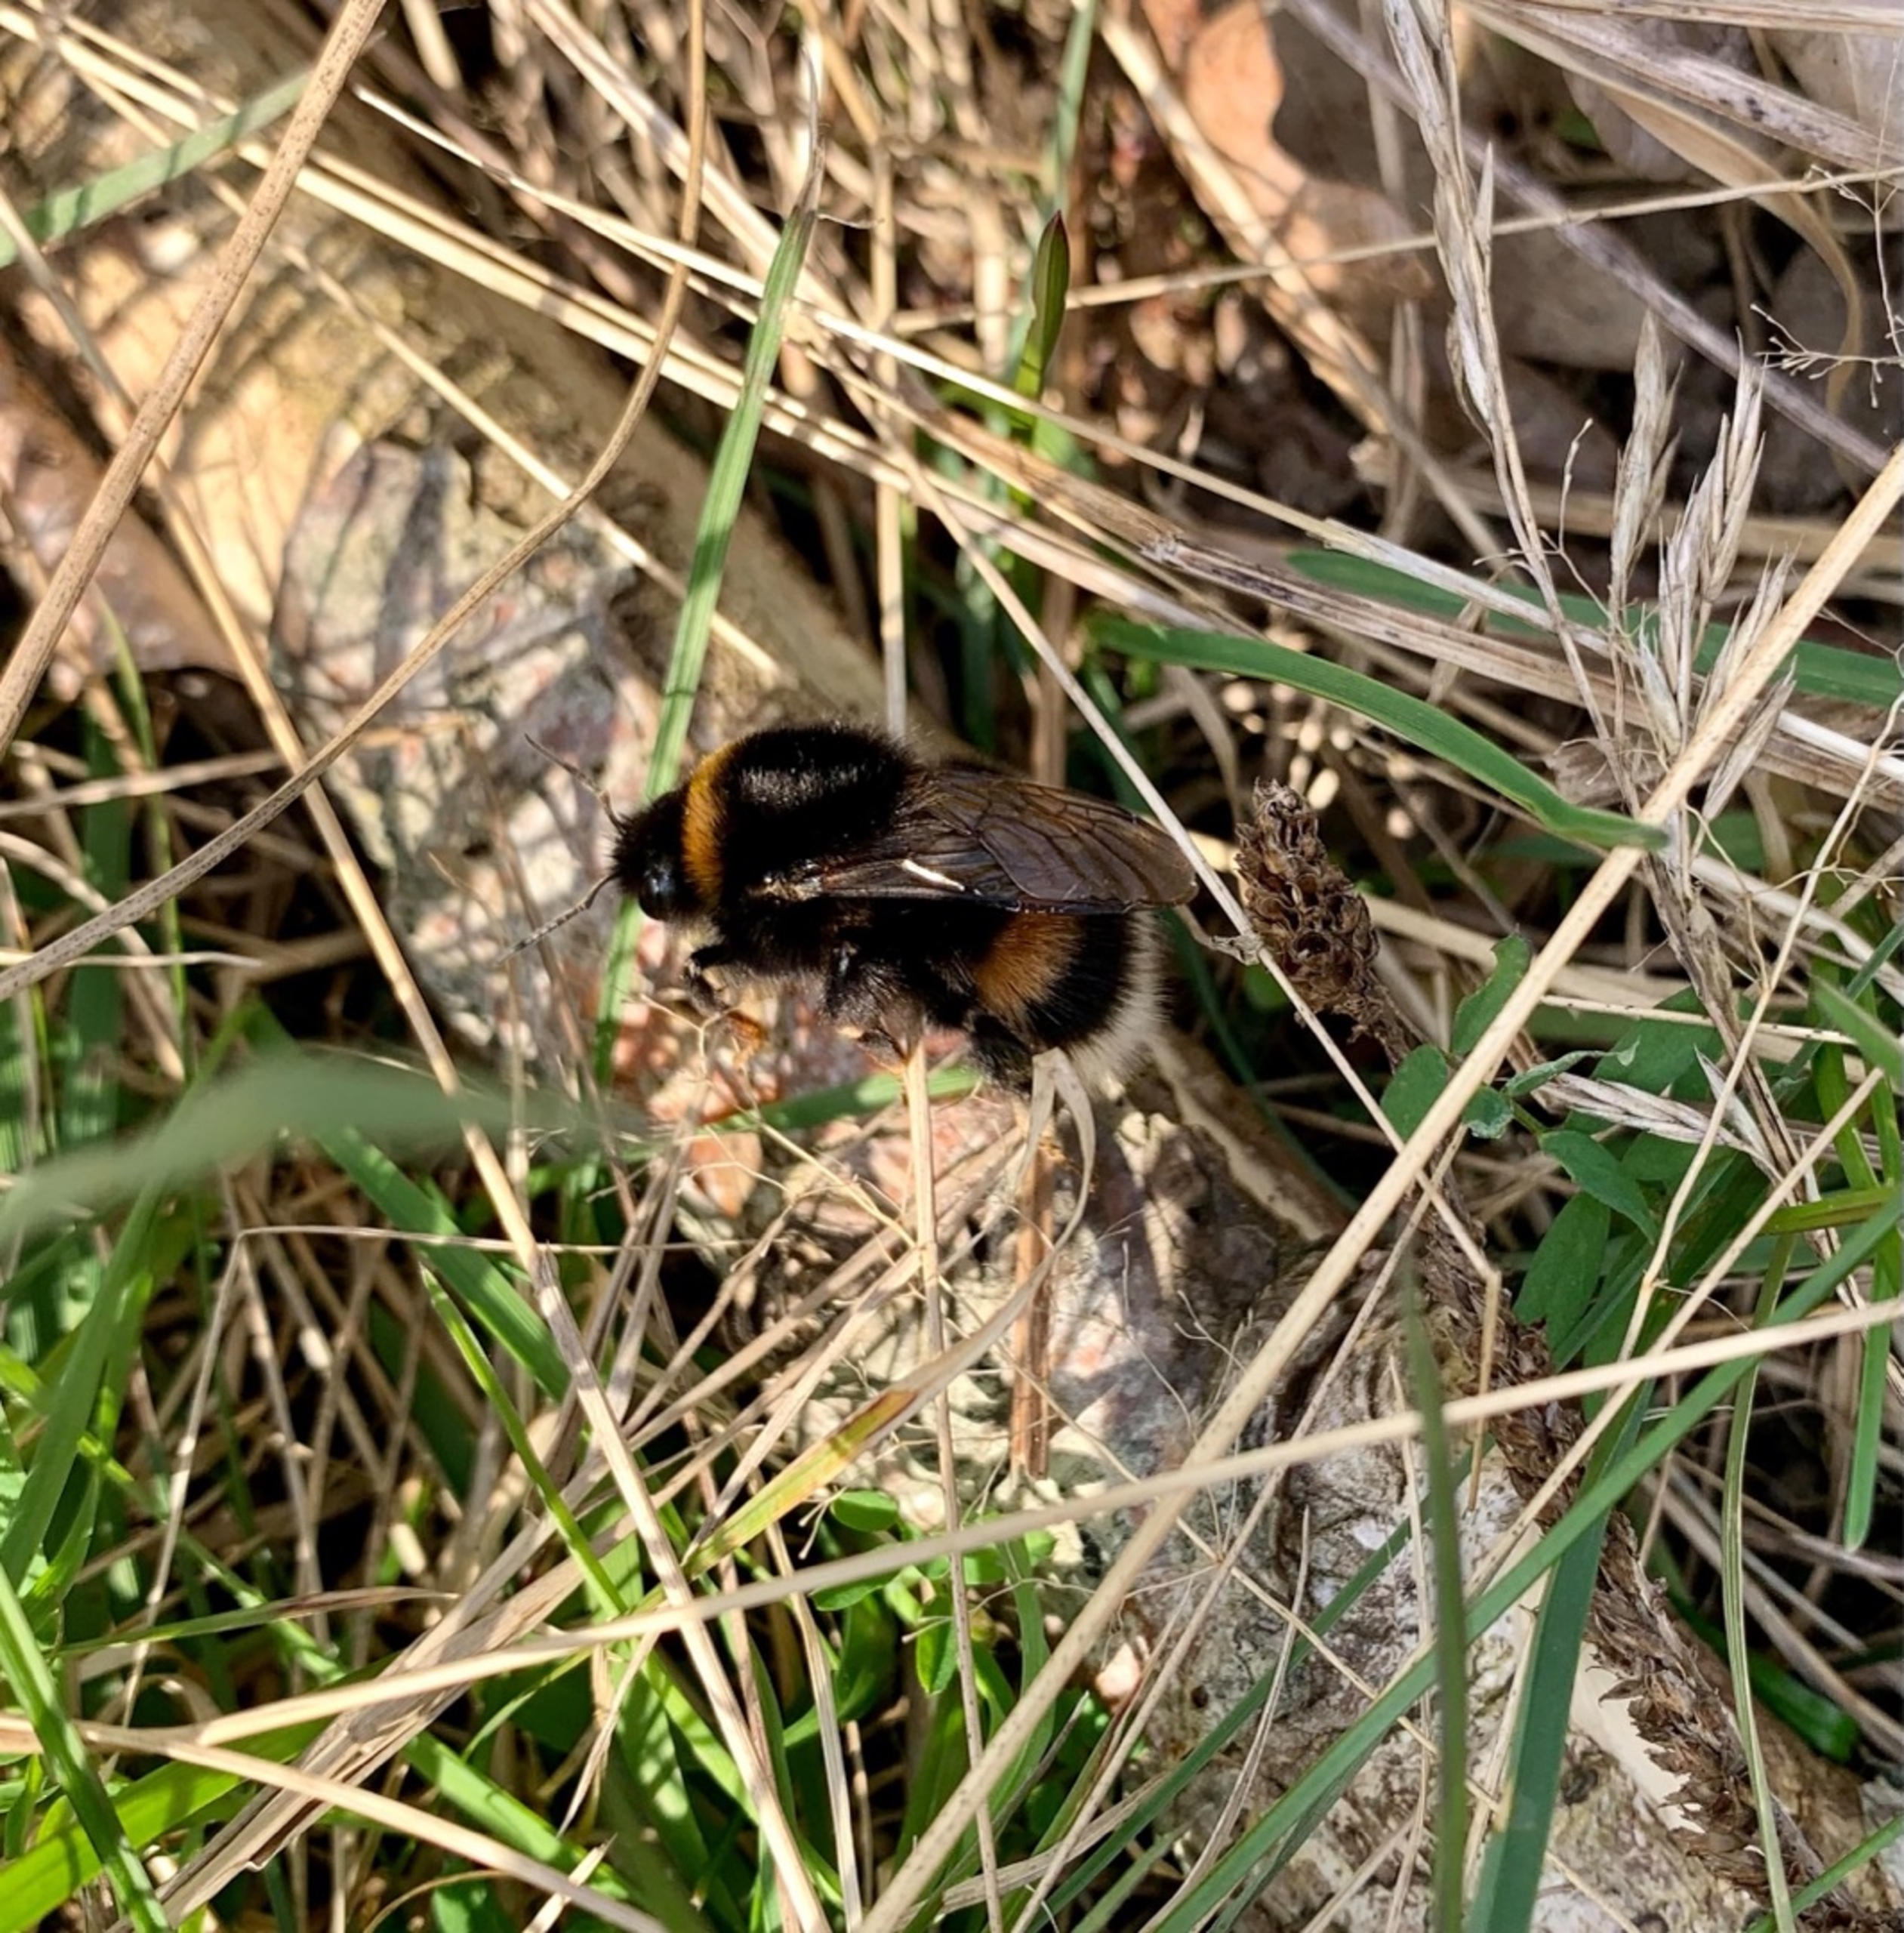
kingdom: Animalia
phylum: Arthropoda
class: Insecta
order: Hymenoptera
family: Apidae
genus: Bombus
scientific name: Bombus terrestris
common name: Mørk jordhumle
